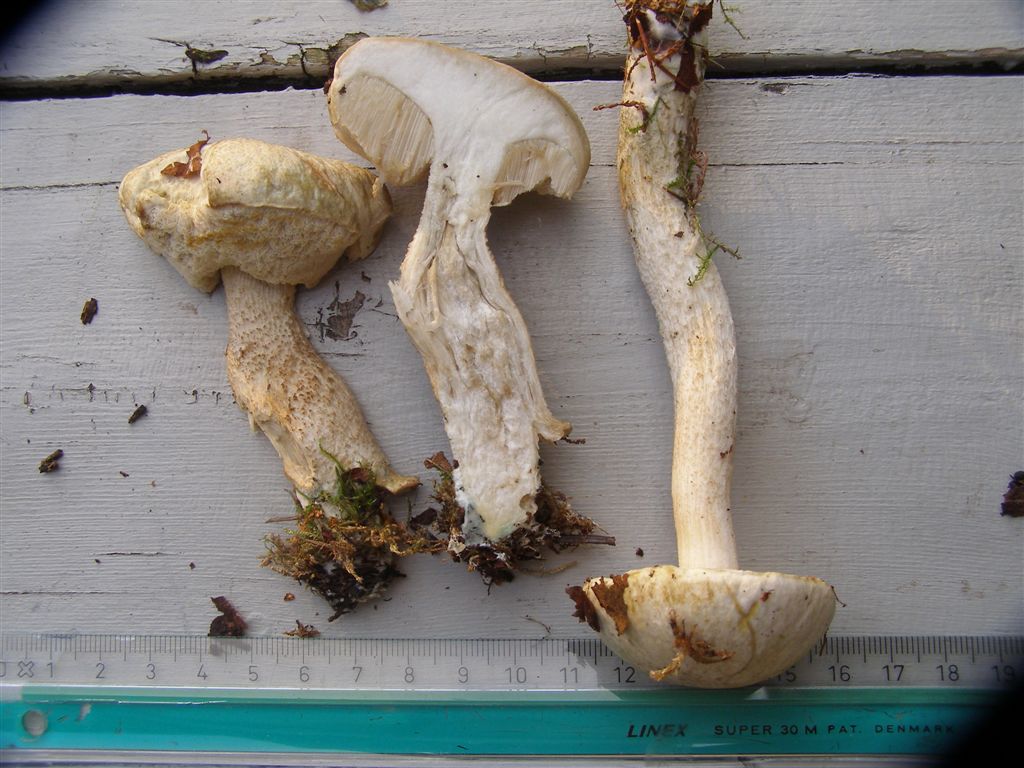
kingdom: Fungi
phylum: Basidiomycota
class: Agaricomycetes
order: Boletales
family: Boletaceae
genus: Leccinum
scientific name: Leccinum scabrum
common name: hvid skælrørhat
